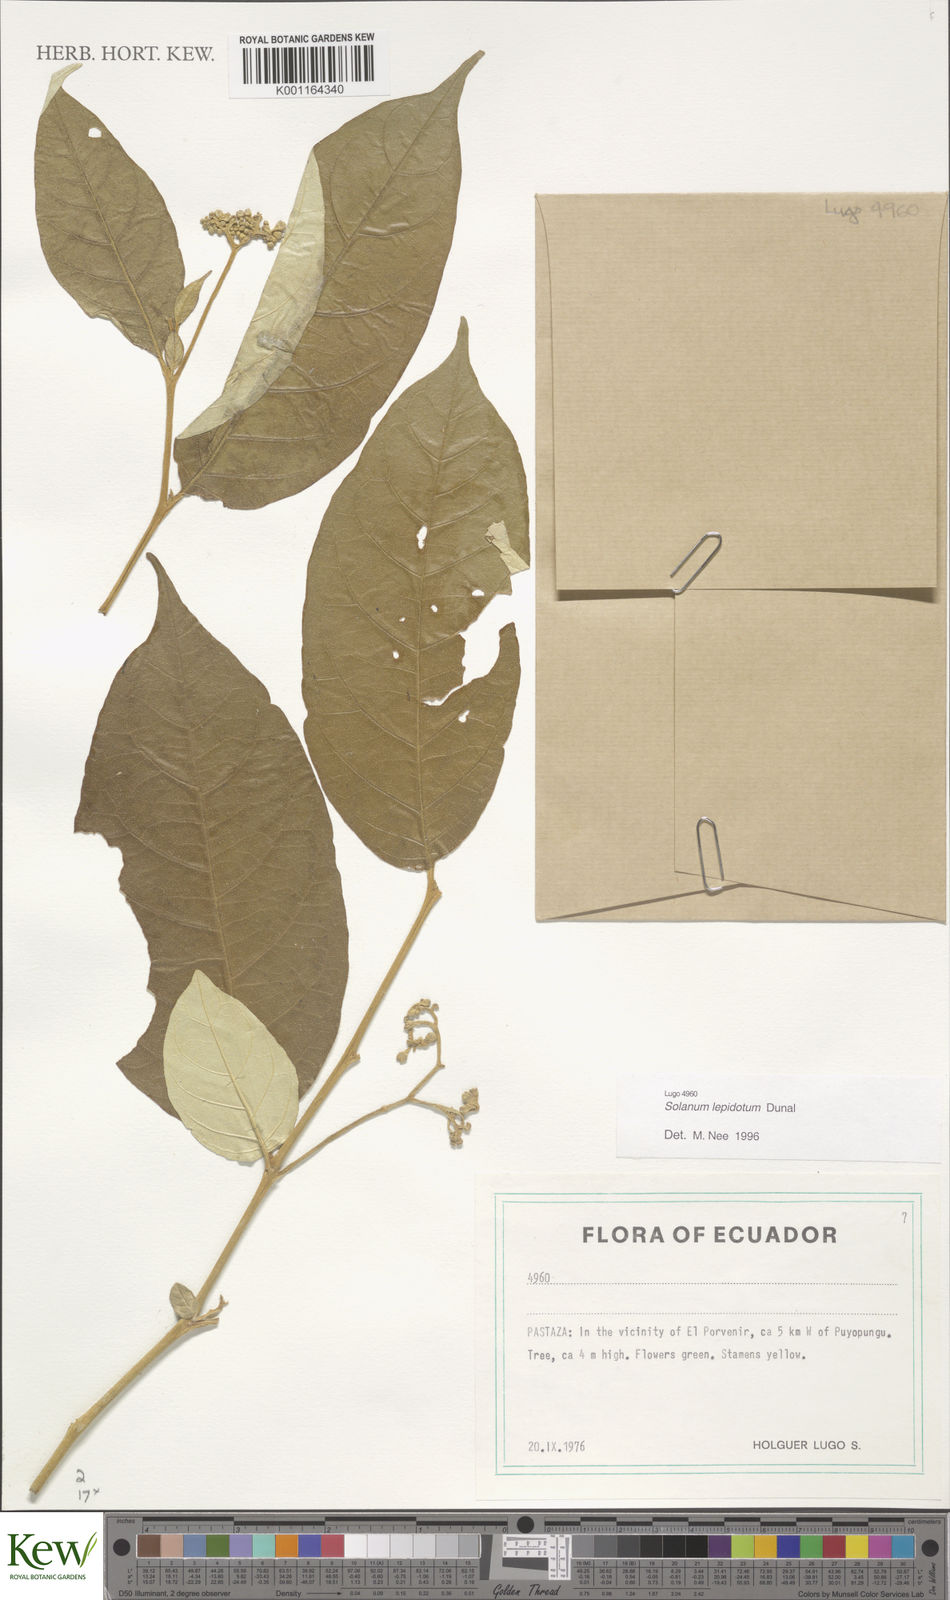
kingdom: Plantae
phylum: Tracheophyta
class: Magnoliopsida
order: Solanales
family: Solanaceae
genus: Solanum
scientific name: Solanum lepidotum
